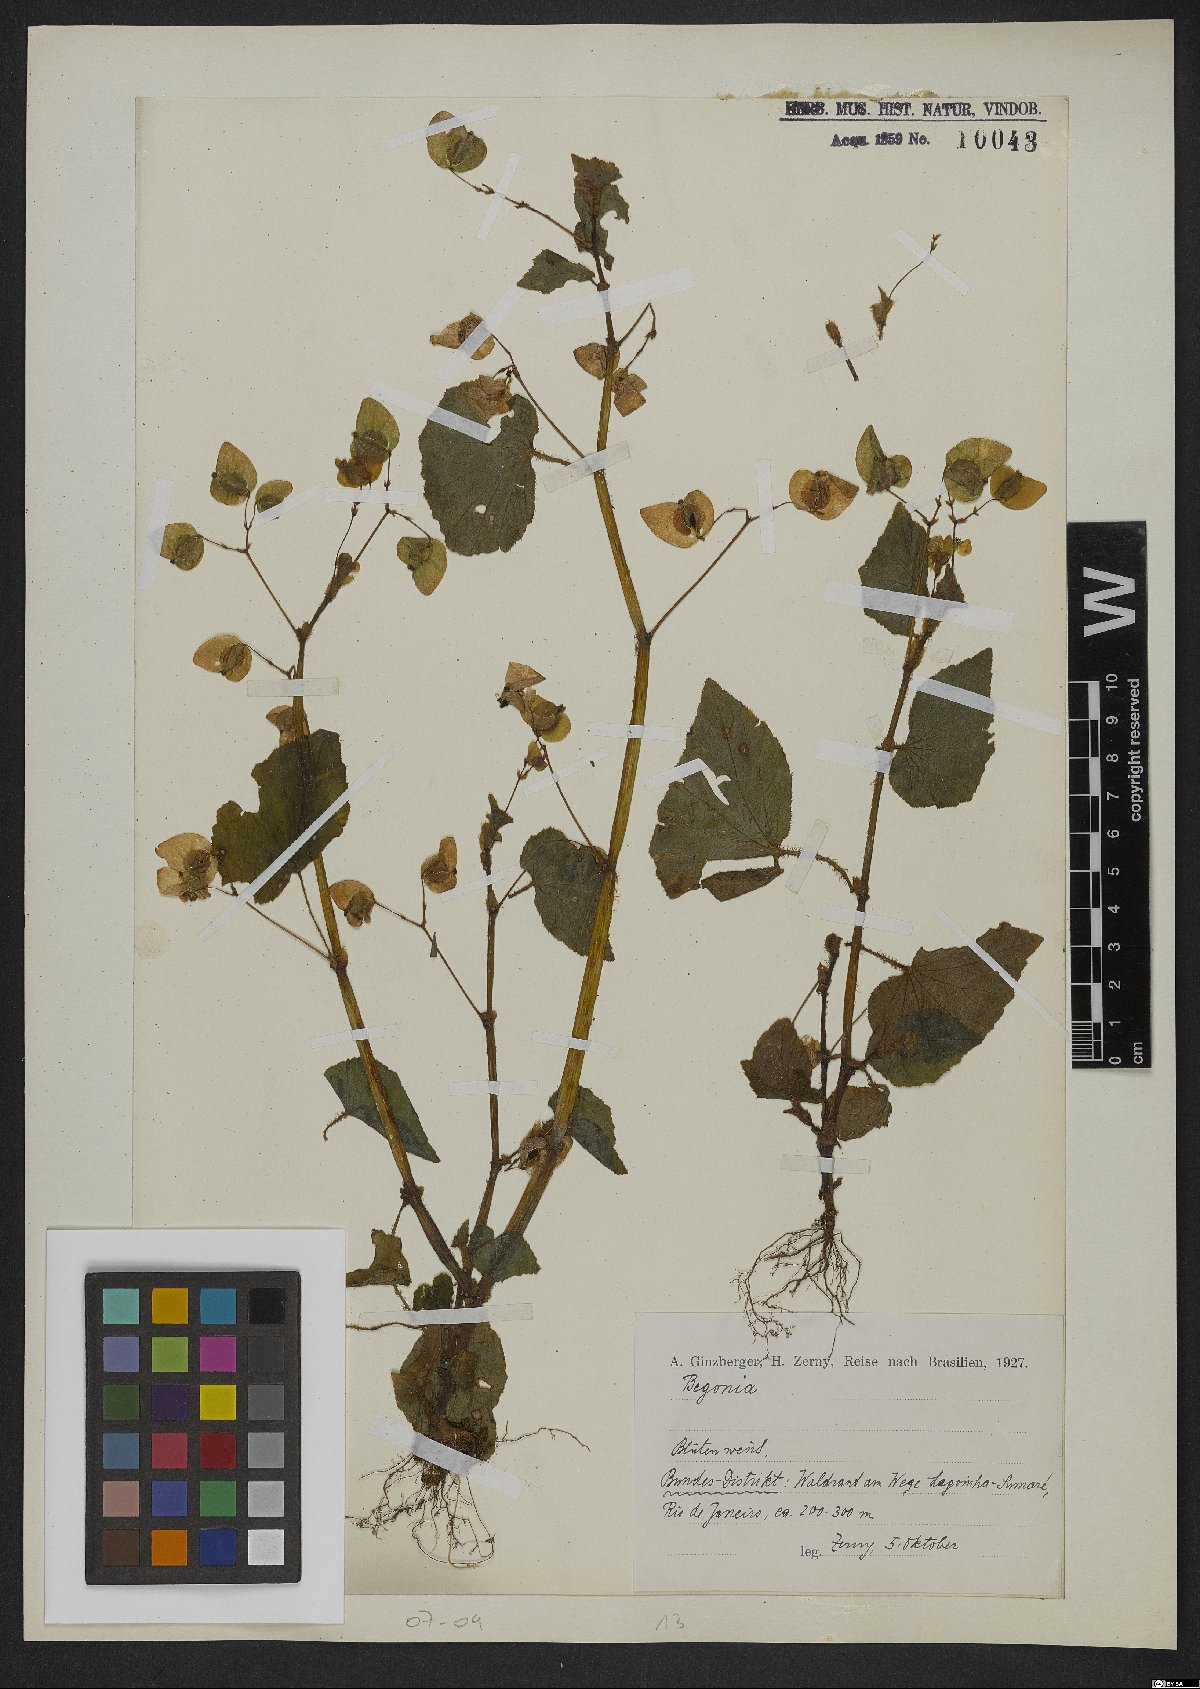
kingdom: Plantae
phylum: Tracheophyta
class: Magnoliopsida
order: Cucurbitales
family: Begoniaceae
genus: Begonia
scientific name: Begonia
